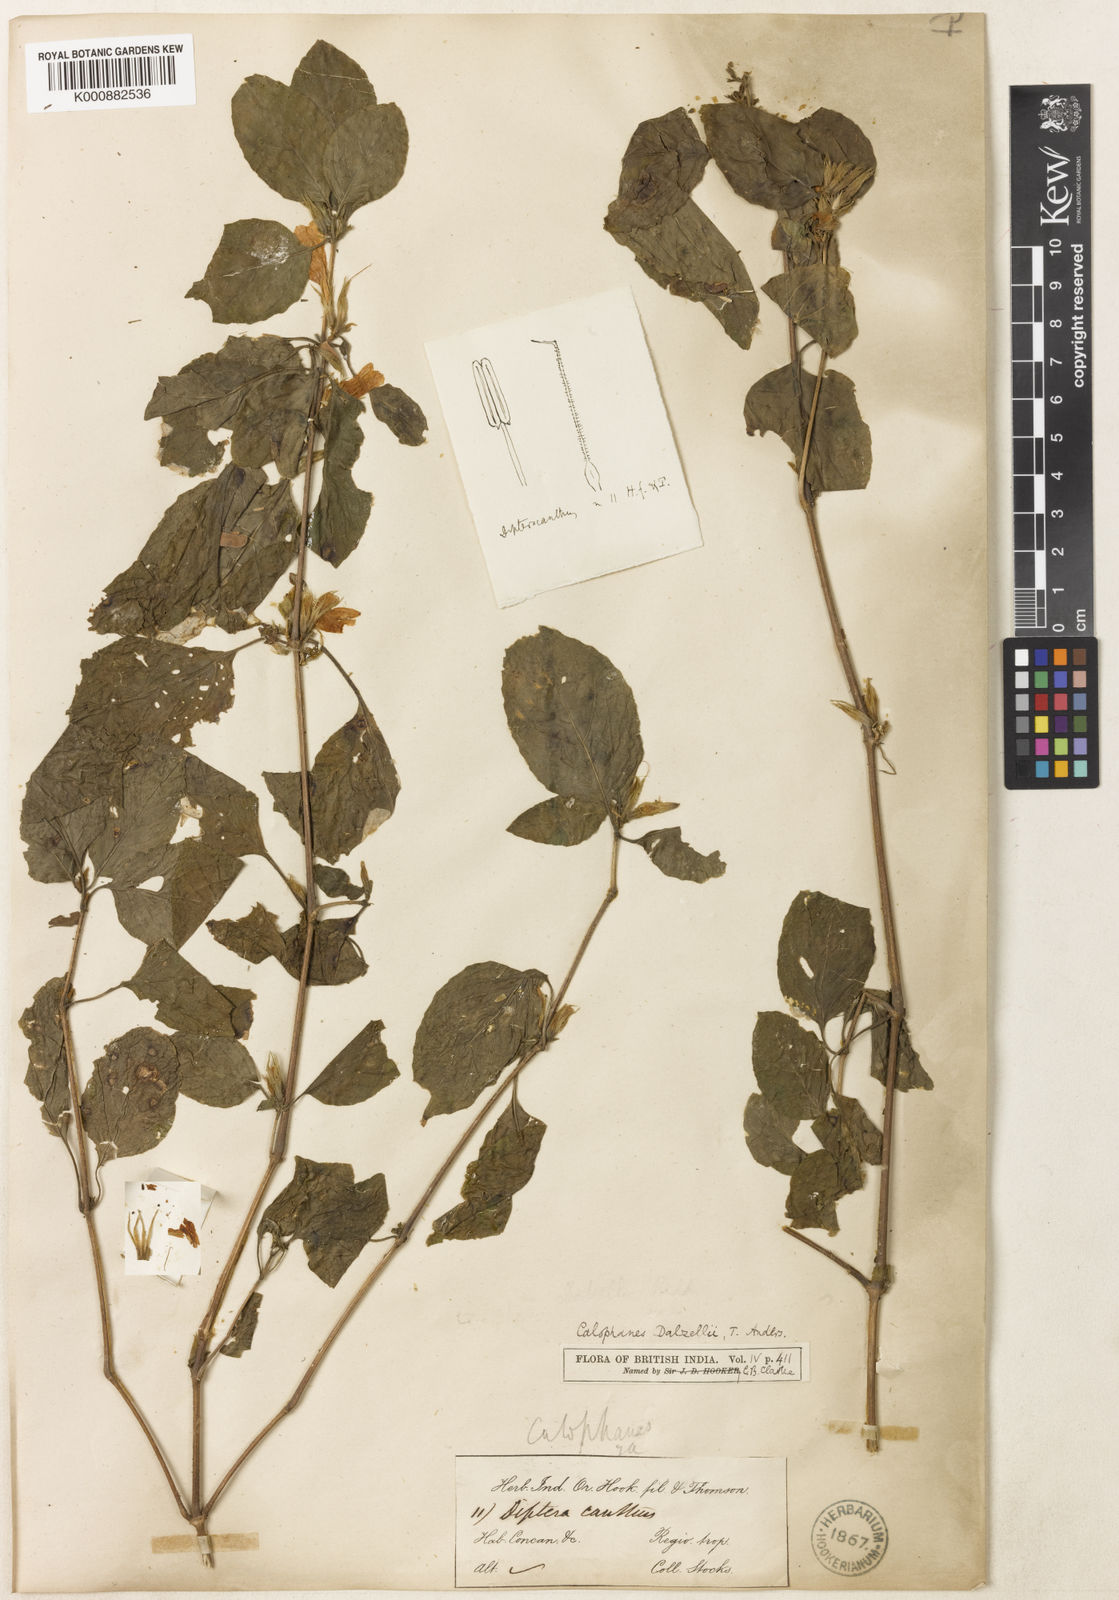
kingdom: Plantae
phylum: Tracheophyta
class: Magnoliopsida
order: Lamiales
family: Acanthaceae
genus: Dyschoriste
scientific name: Dyschoriste
